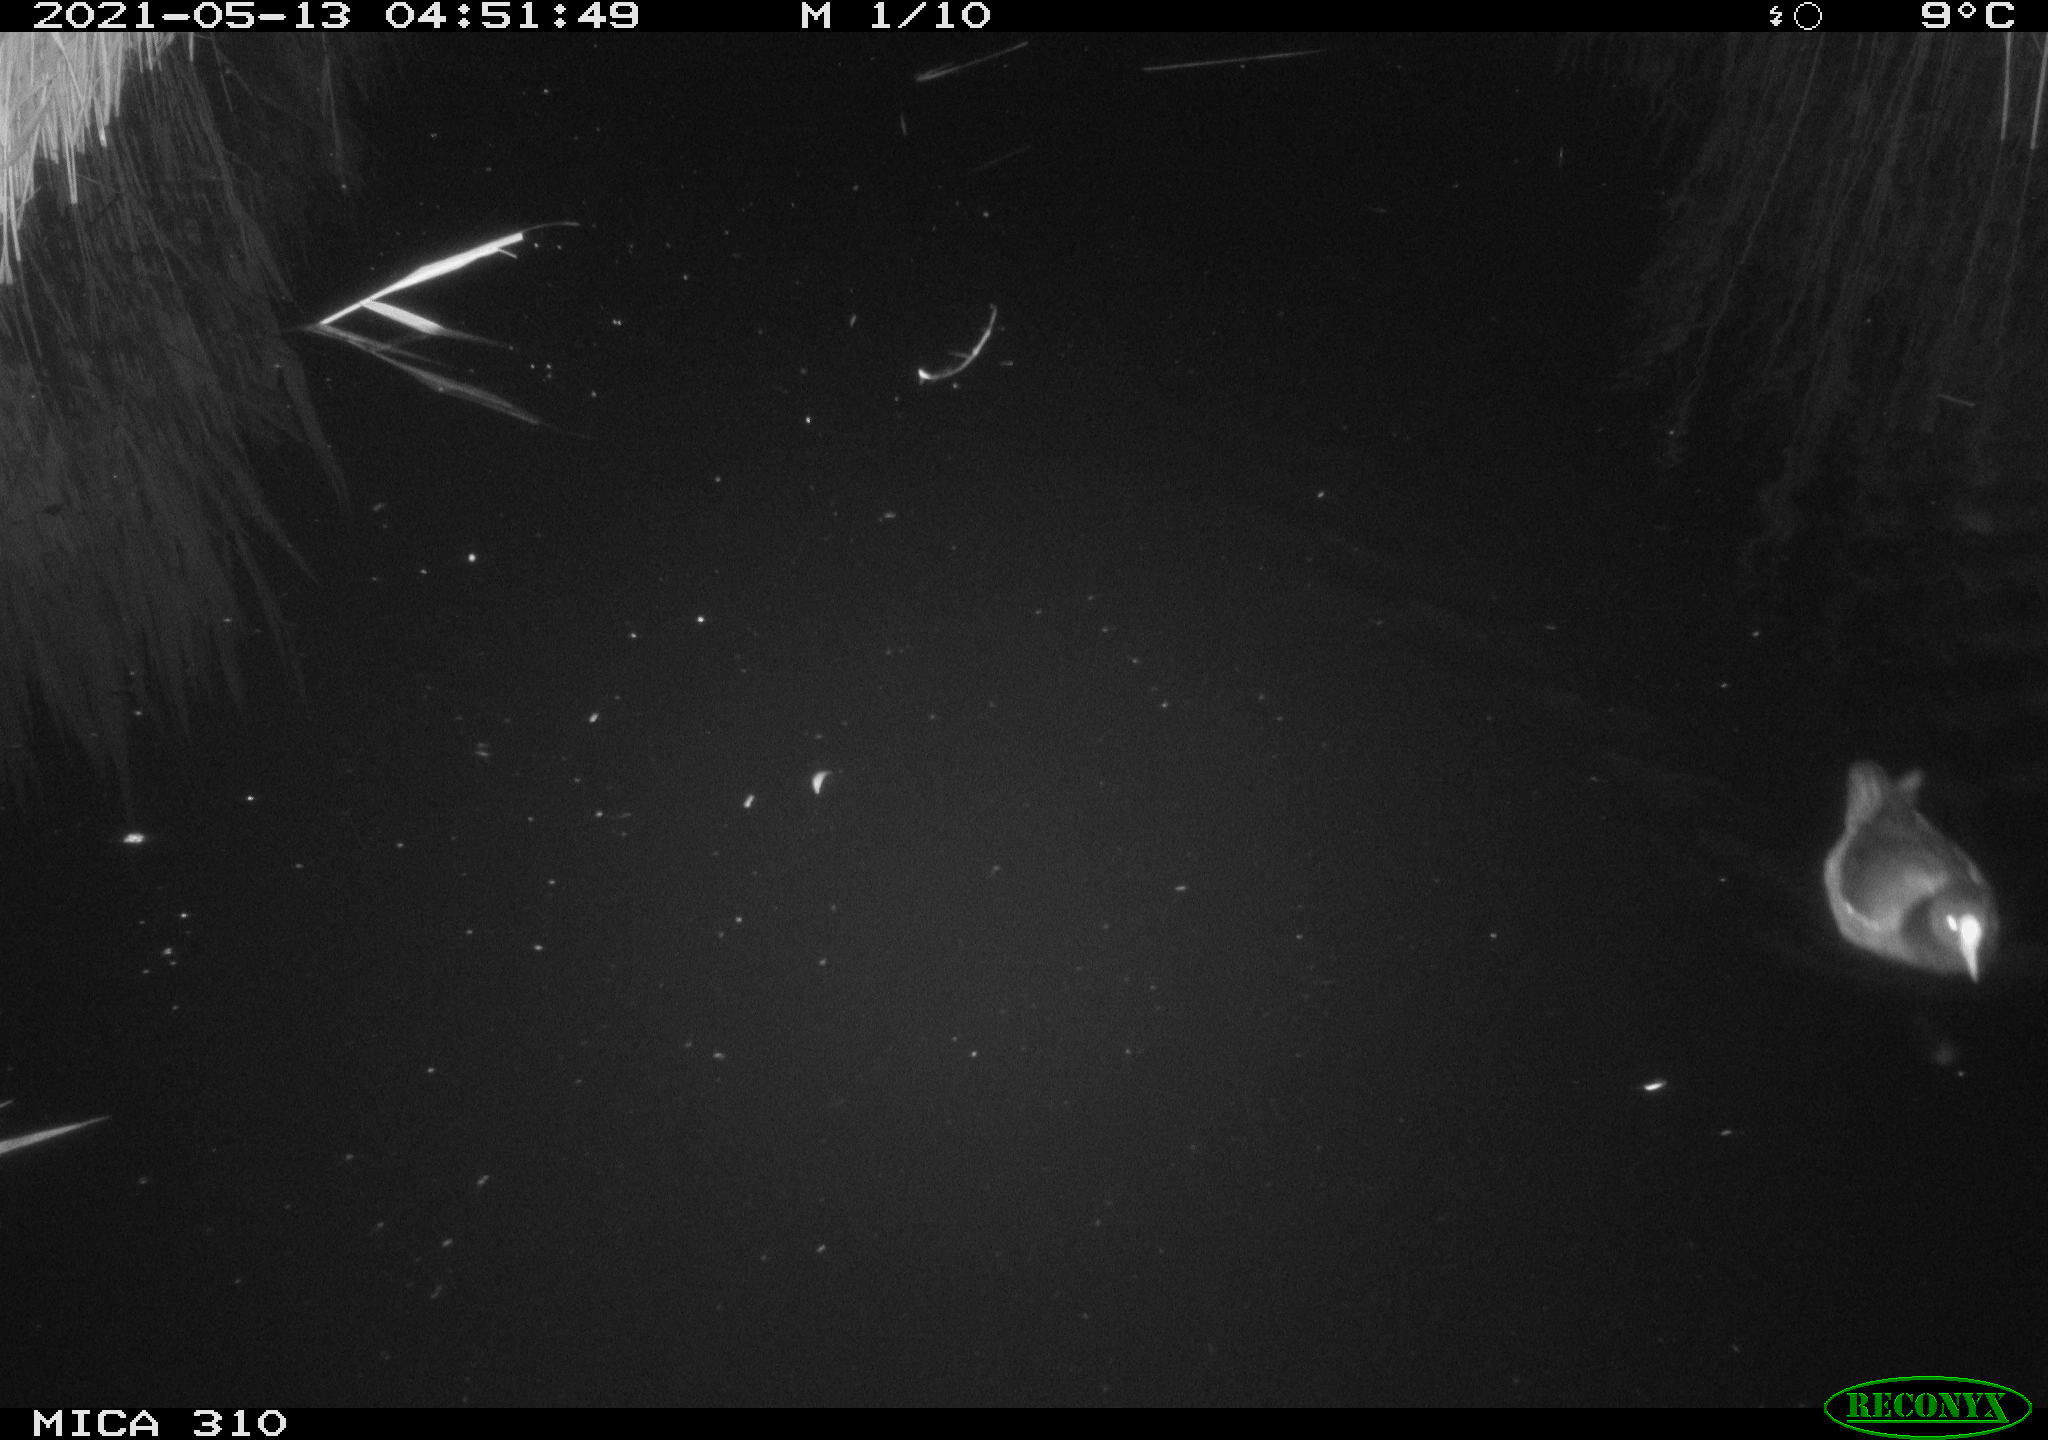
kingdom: Animalia
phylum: Chordata
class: Aves
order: Gruiformes
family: Rallidae
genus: Gallinula
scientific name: Gallinula chloropus
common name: Common moorhen
